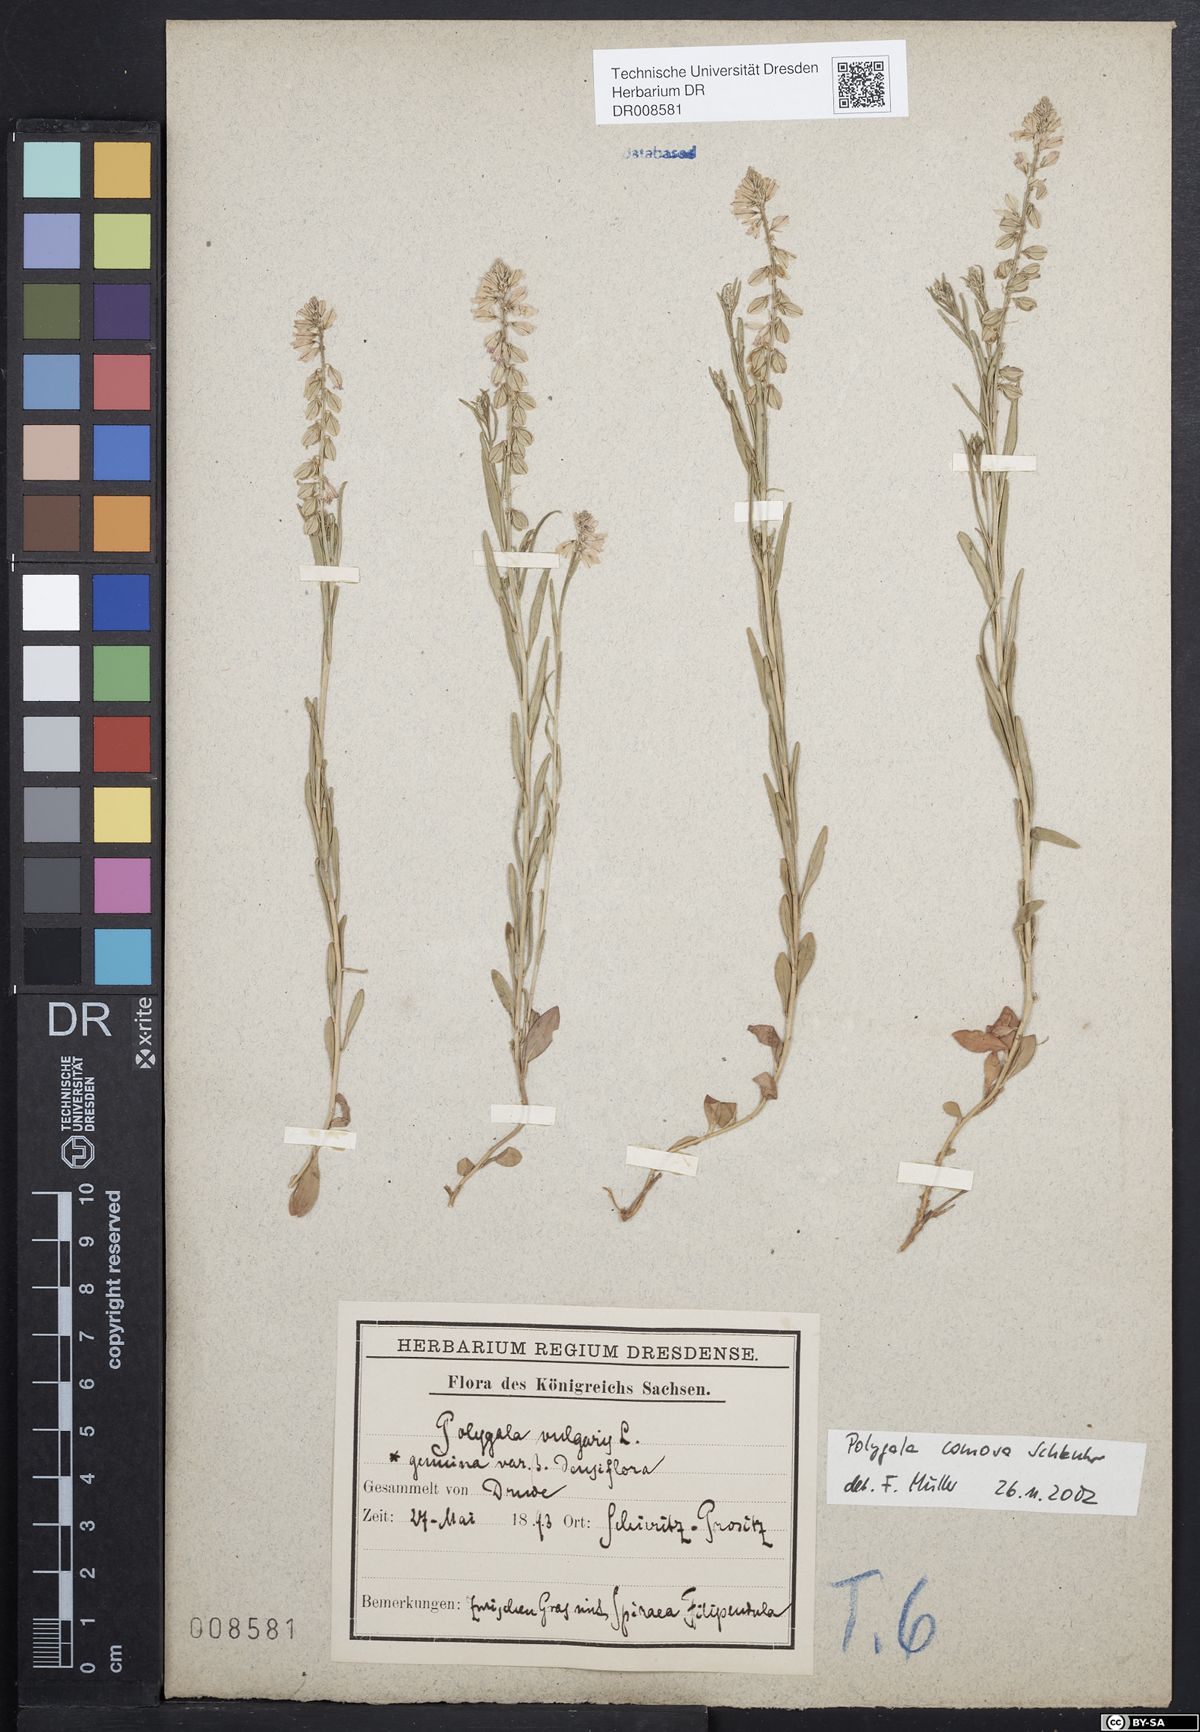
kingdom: Plantae
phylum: Tracheophyta
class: Magnoliopsida
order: Fabales
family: Polygalaceae
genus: Polygala
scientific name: Polygala comosa
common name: Tufted milkwort
